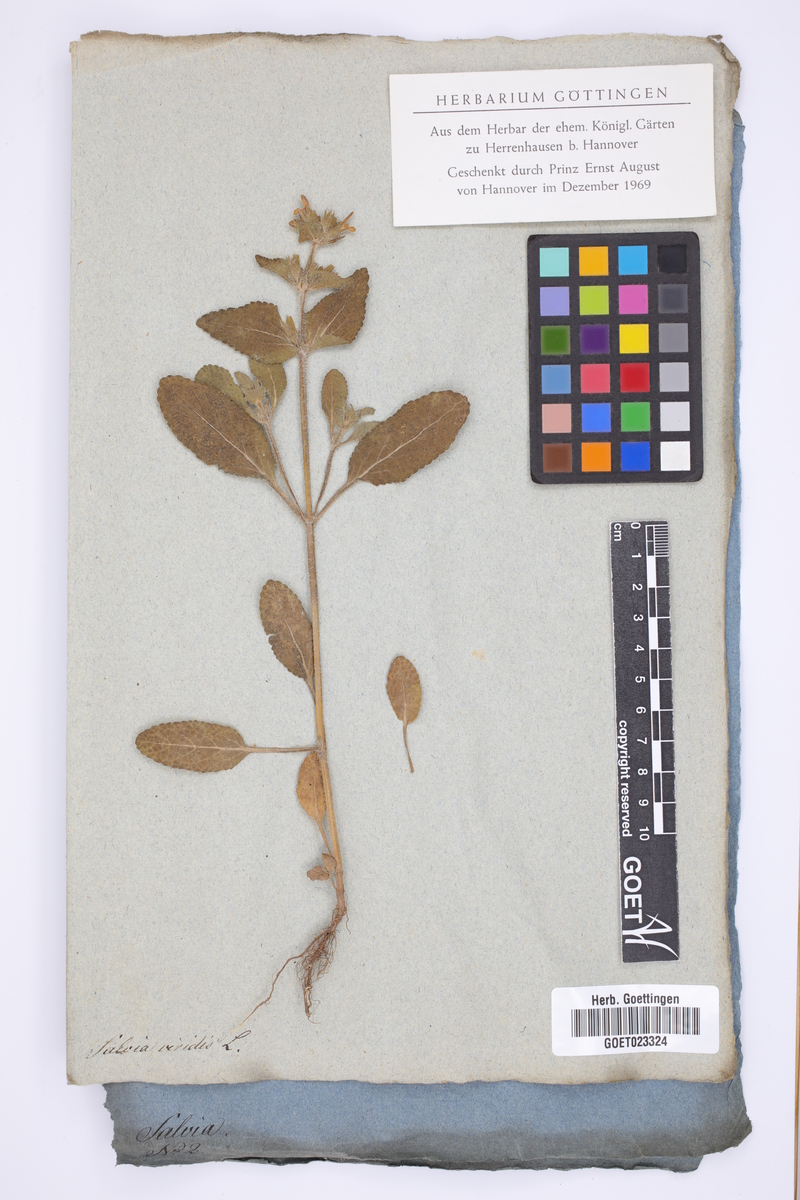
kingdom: Plantae
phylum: Tracheophyta
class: Magnoliopsida
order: Lamiales
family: Lamiaceae
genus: Salvia
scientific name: Salvia viridis
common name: Annual clary
